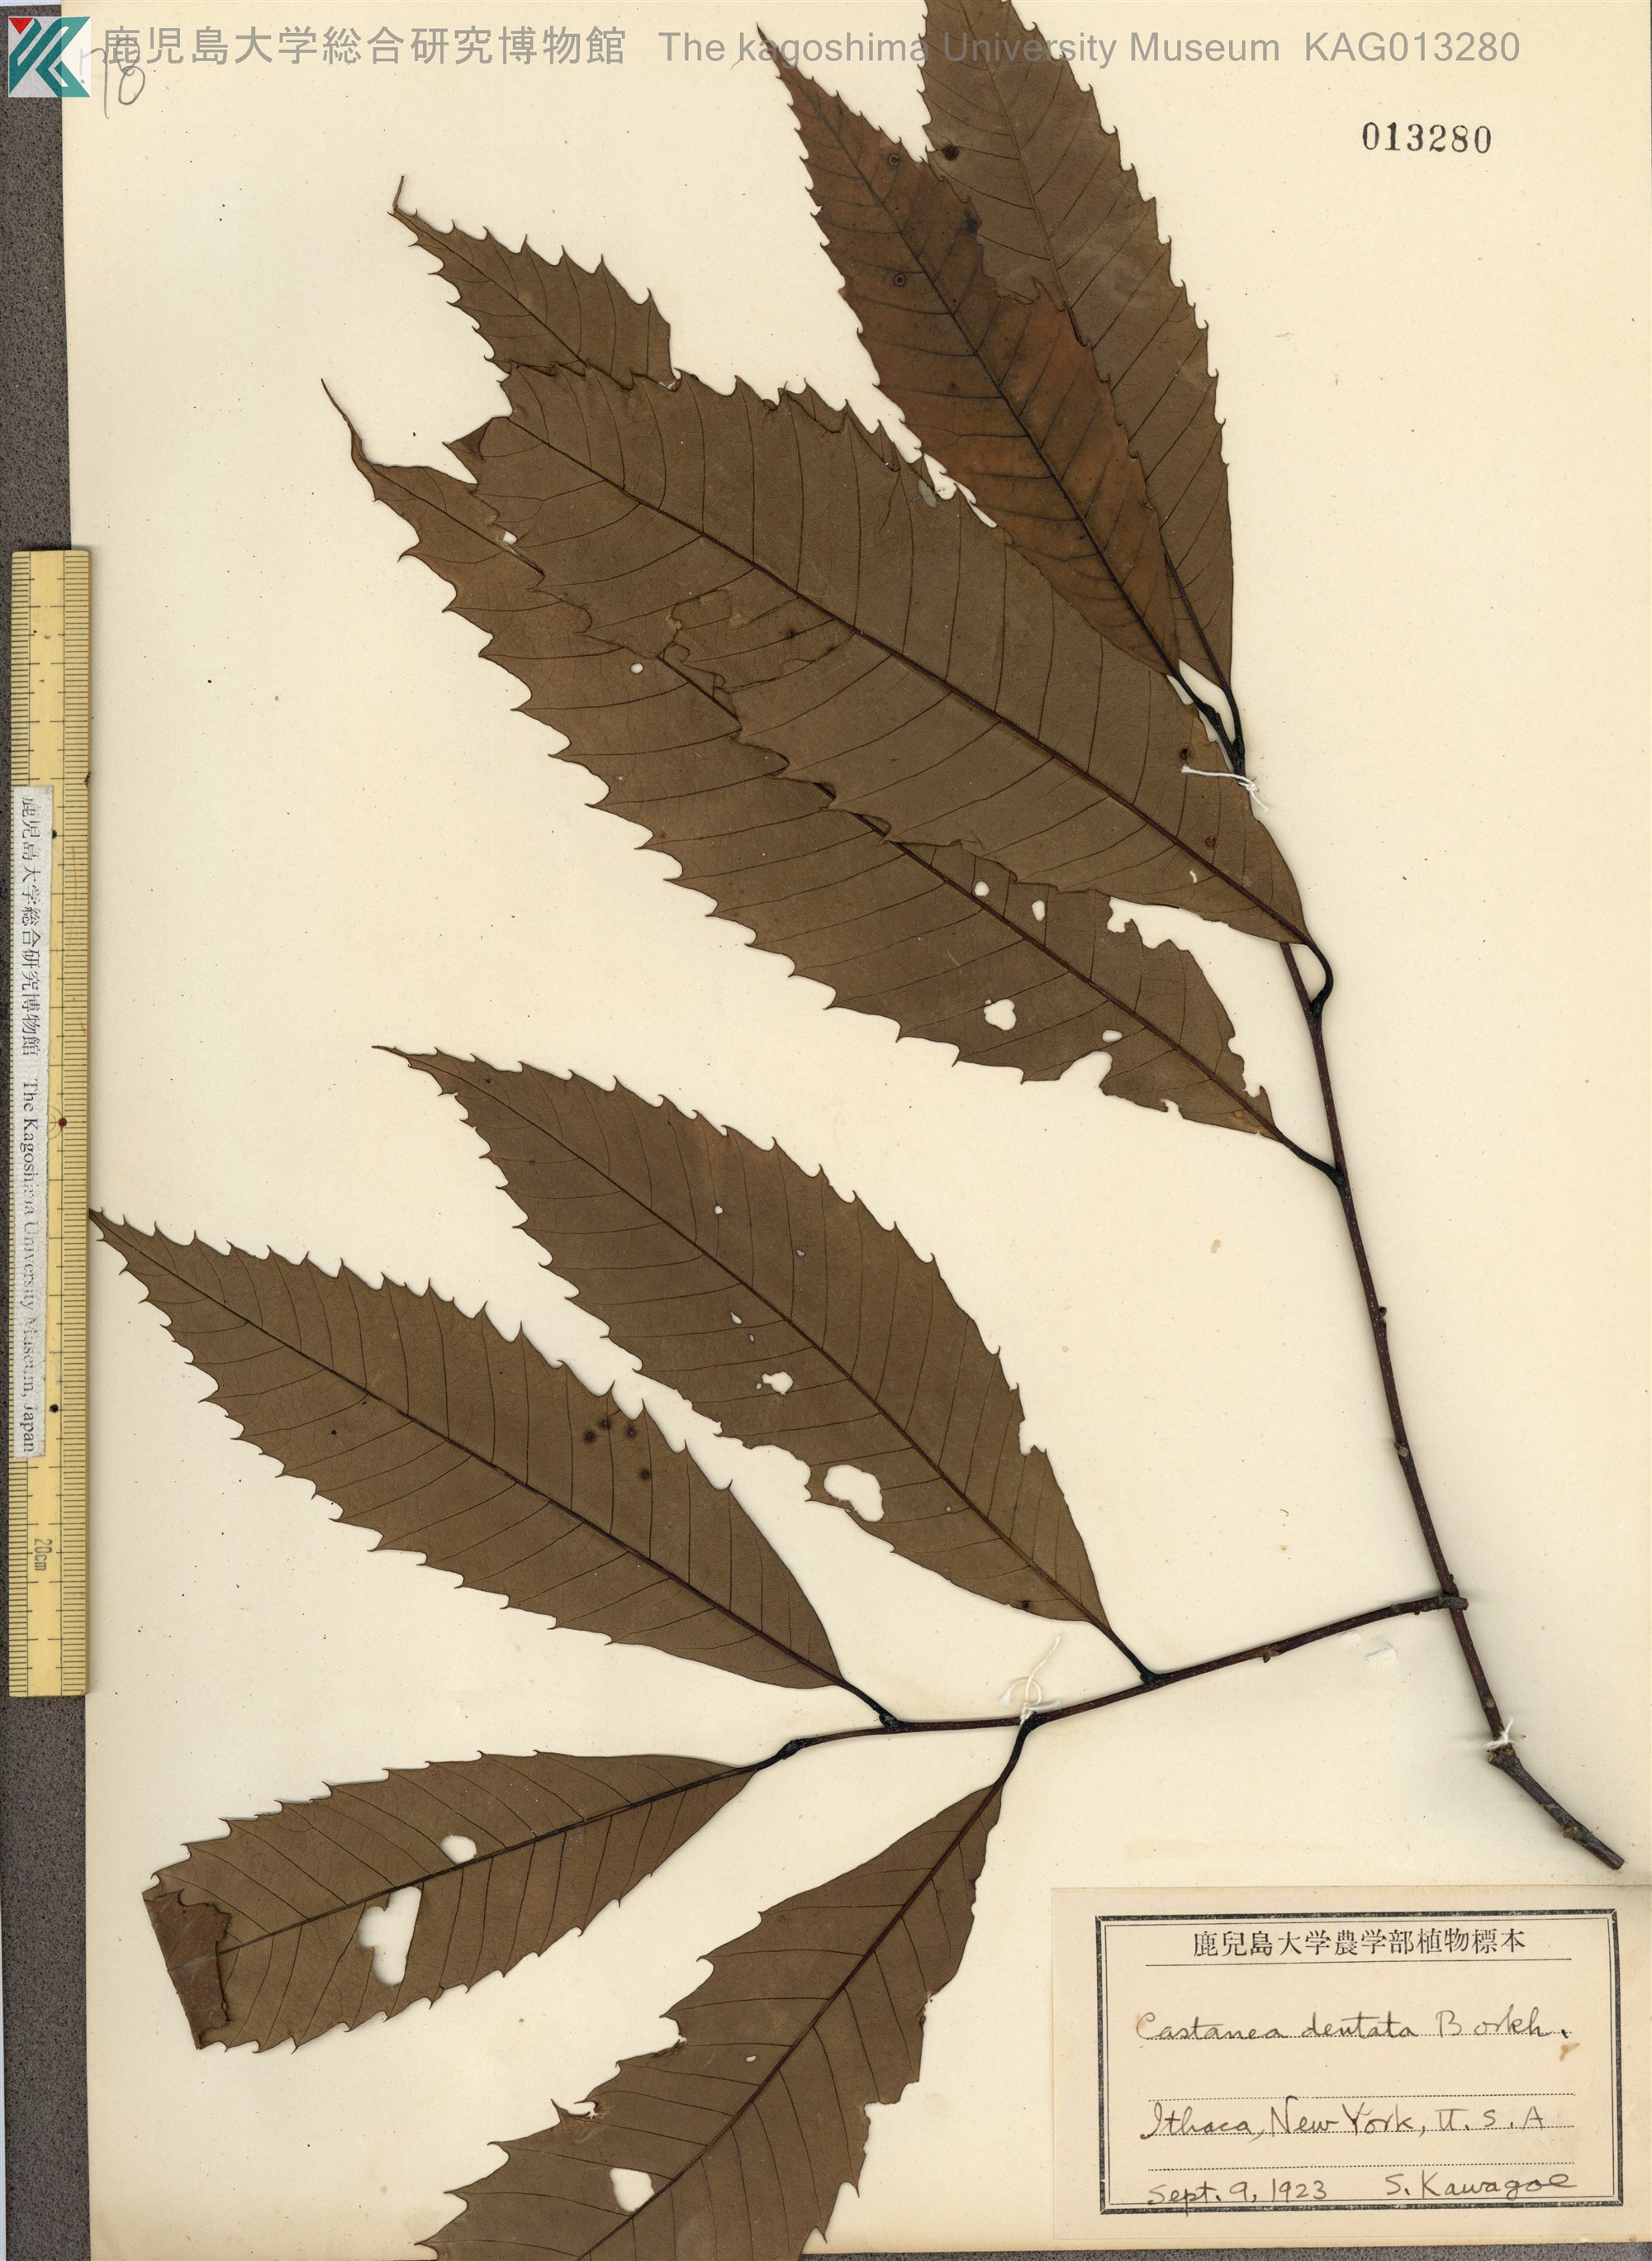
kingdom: Plantae
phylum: Tracheophyta
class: Magnoliopsida
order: Fagales
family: Fagaceae
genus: Castanea
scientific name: Castanea dentata
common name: American chestnut
